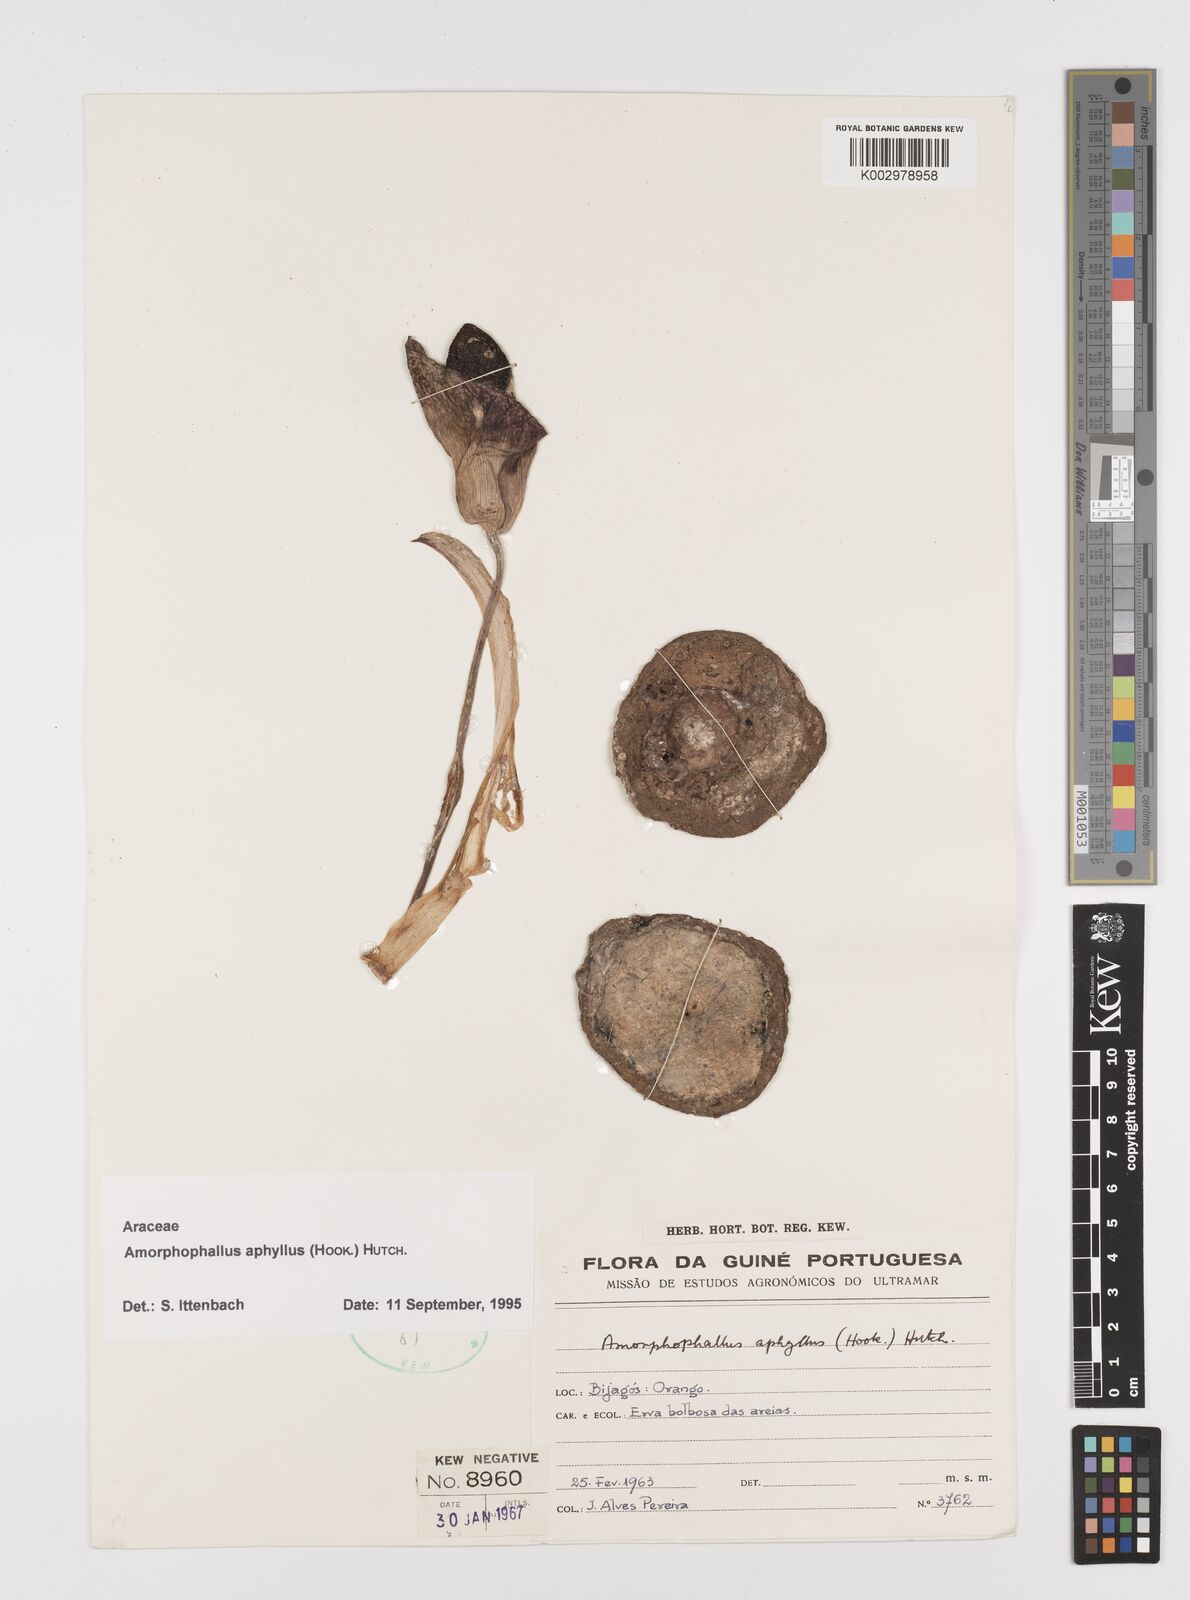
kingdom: Plantae
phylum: Tracheophyta
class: Liliopsida
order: Alismatales
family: Araceae
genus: Amorphophallus
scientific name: Amorphophallus aphyllus
